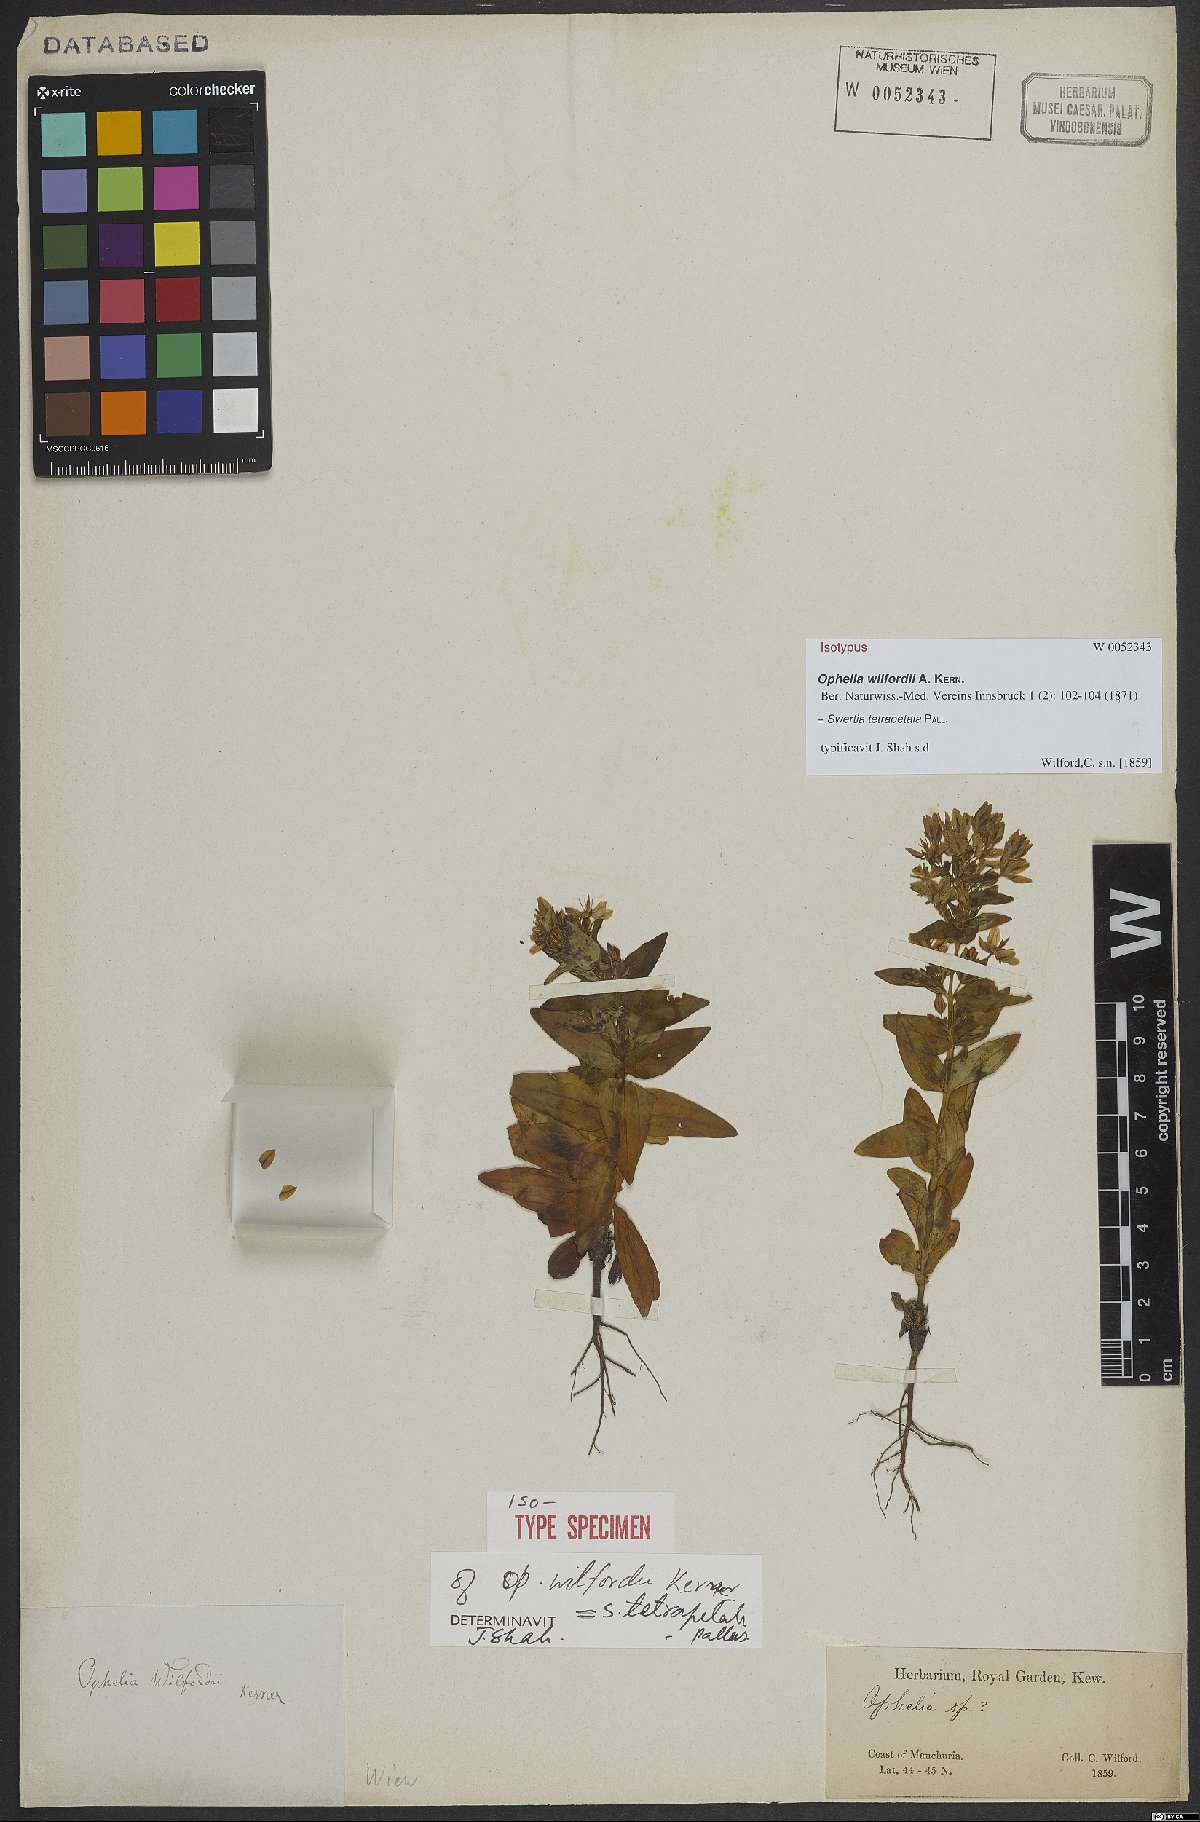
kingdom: Plantae
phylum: Tracheophyta
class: Magnoliopsida
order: Gentianales
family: Gentianaceae
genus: Swertia
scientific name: Swertia tetrapetala
